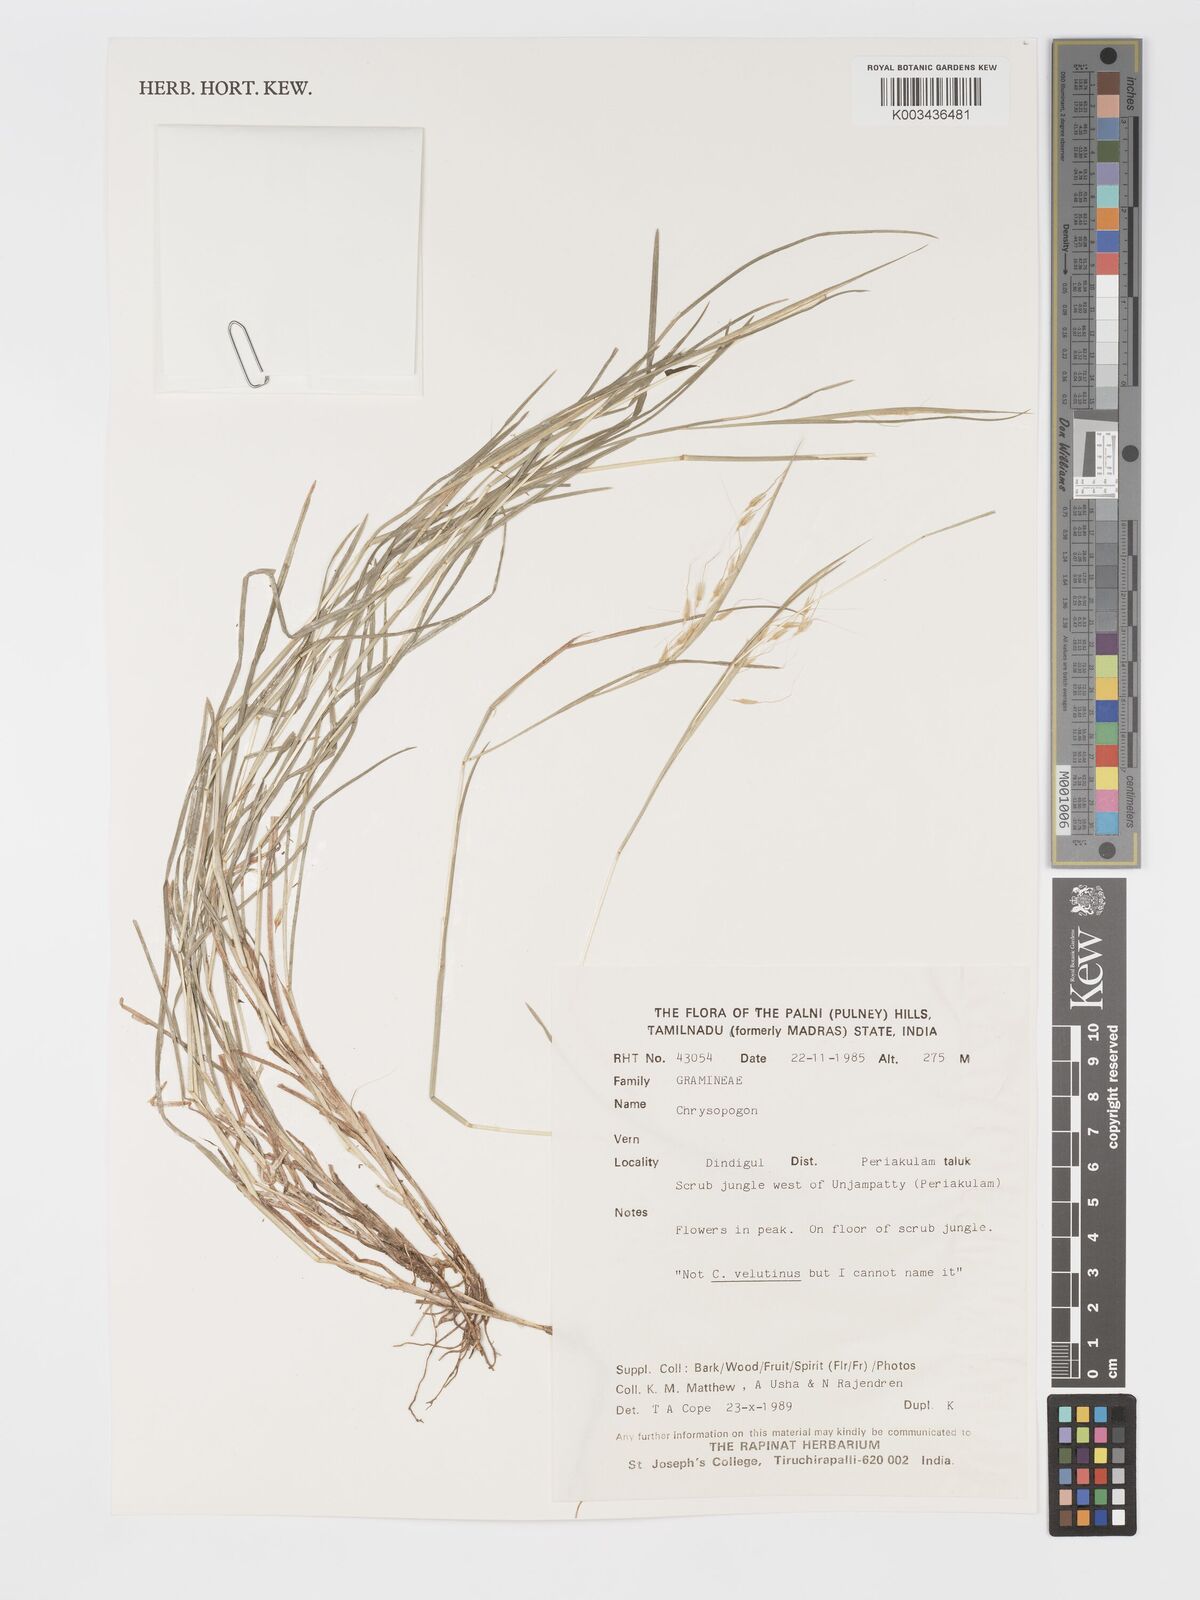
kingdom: Plantae
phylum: Tracheophyta
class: Liliopsida
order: Poales
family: Poaceae
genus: Chrysopogon
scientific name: Chrysopogon
